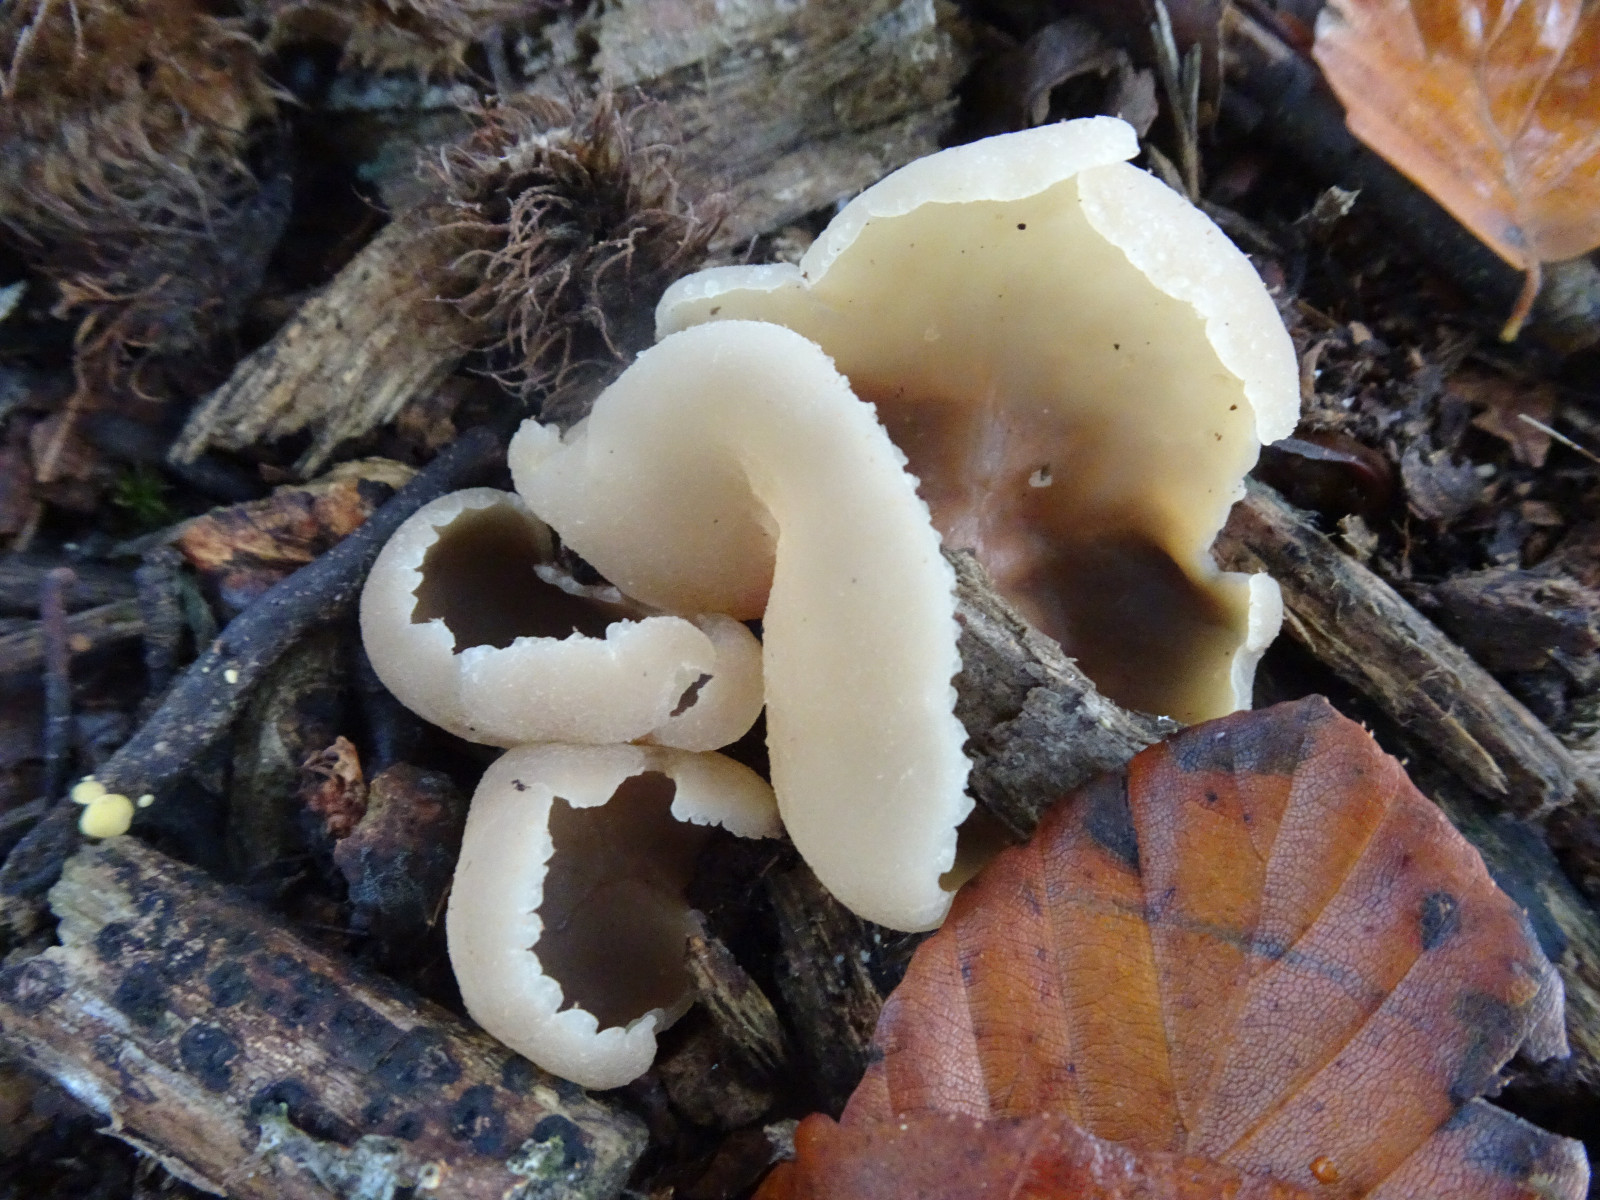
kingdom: Fungi
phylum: Ascomycota
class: Pezizomycetes
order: Pezizales
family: Pezizaceae
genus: Peziza
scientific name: Peziza
